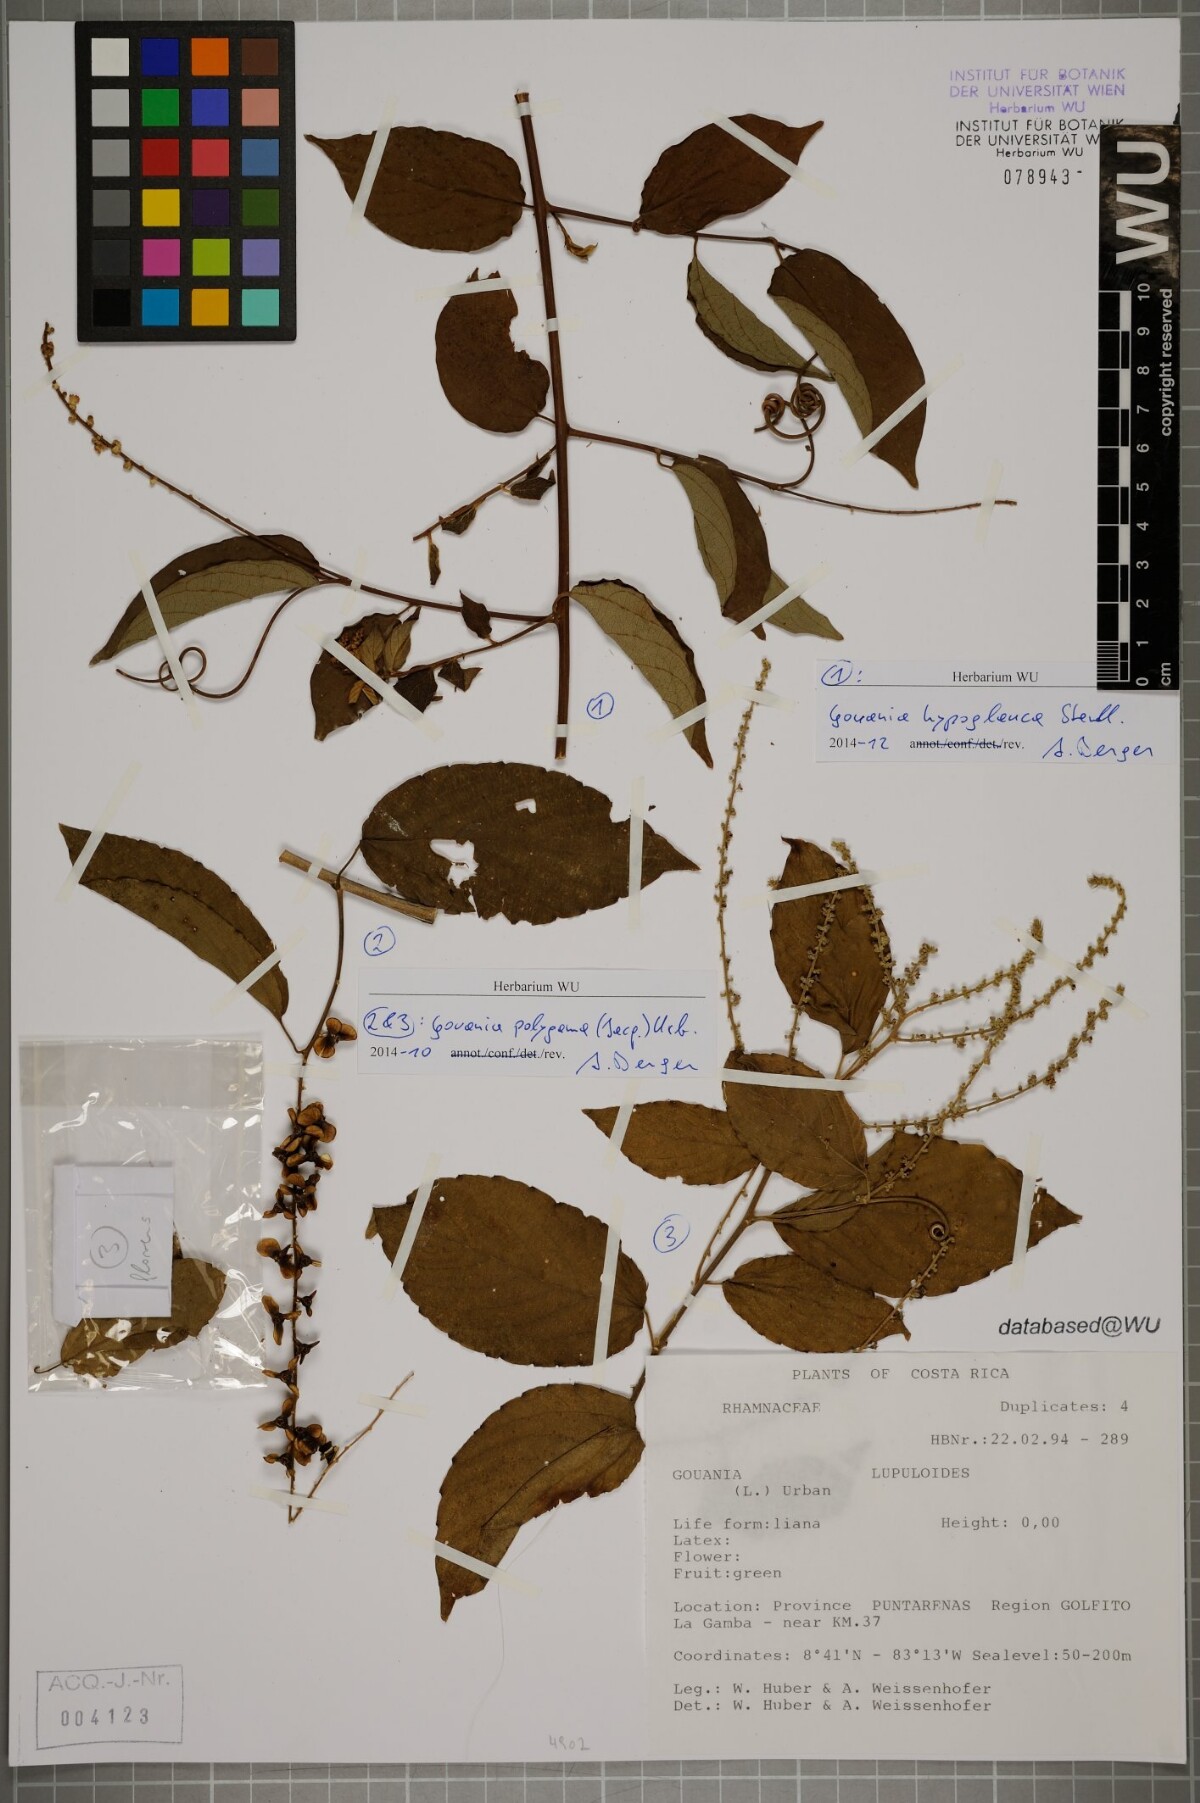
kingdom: Plantae
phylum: Tracheophyta
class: Magnoliopsida
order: Rosales
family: Rhamnaceae
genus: Gouania
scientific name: Gouania hypoglauca
